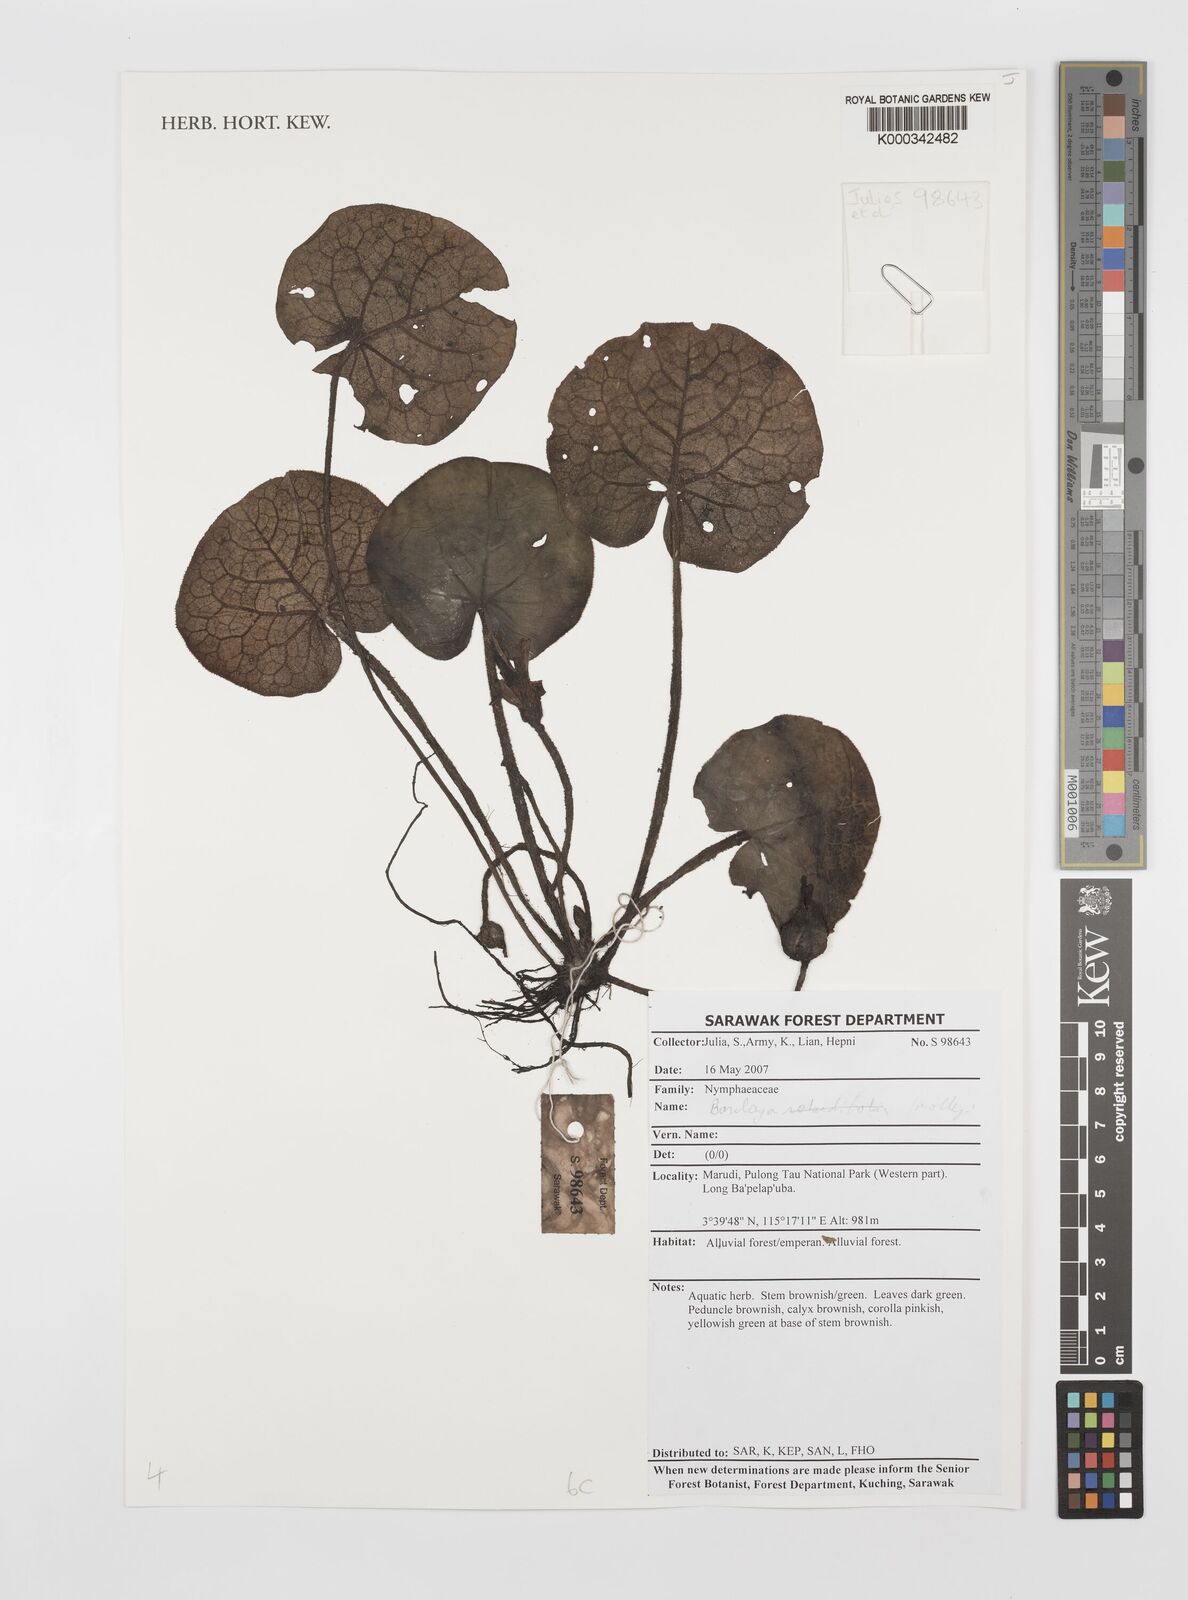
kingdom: Plantae
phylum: Tracheophyta
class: Magnoliopsida
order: Nymphaeales
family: Nymphaeaceae
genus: Barclaya
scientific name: Barclaya rotundifolia
